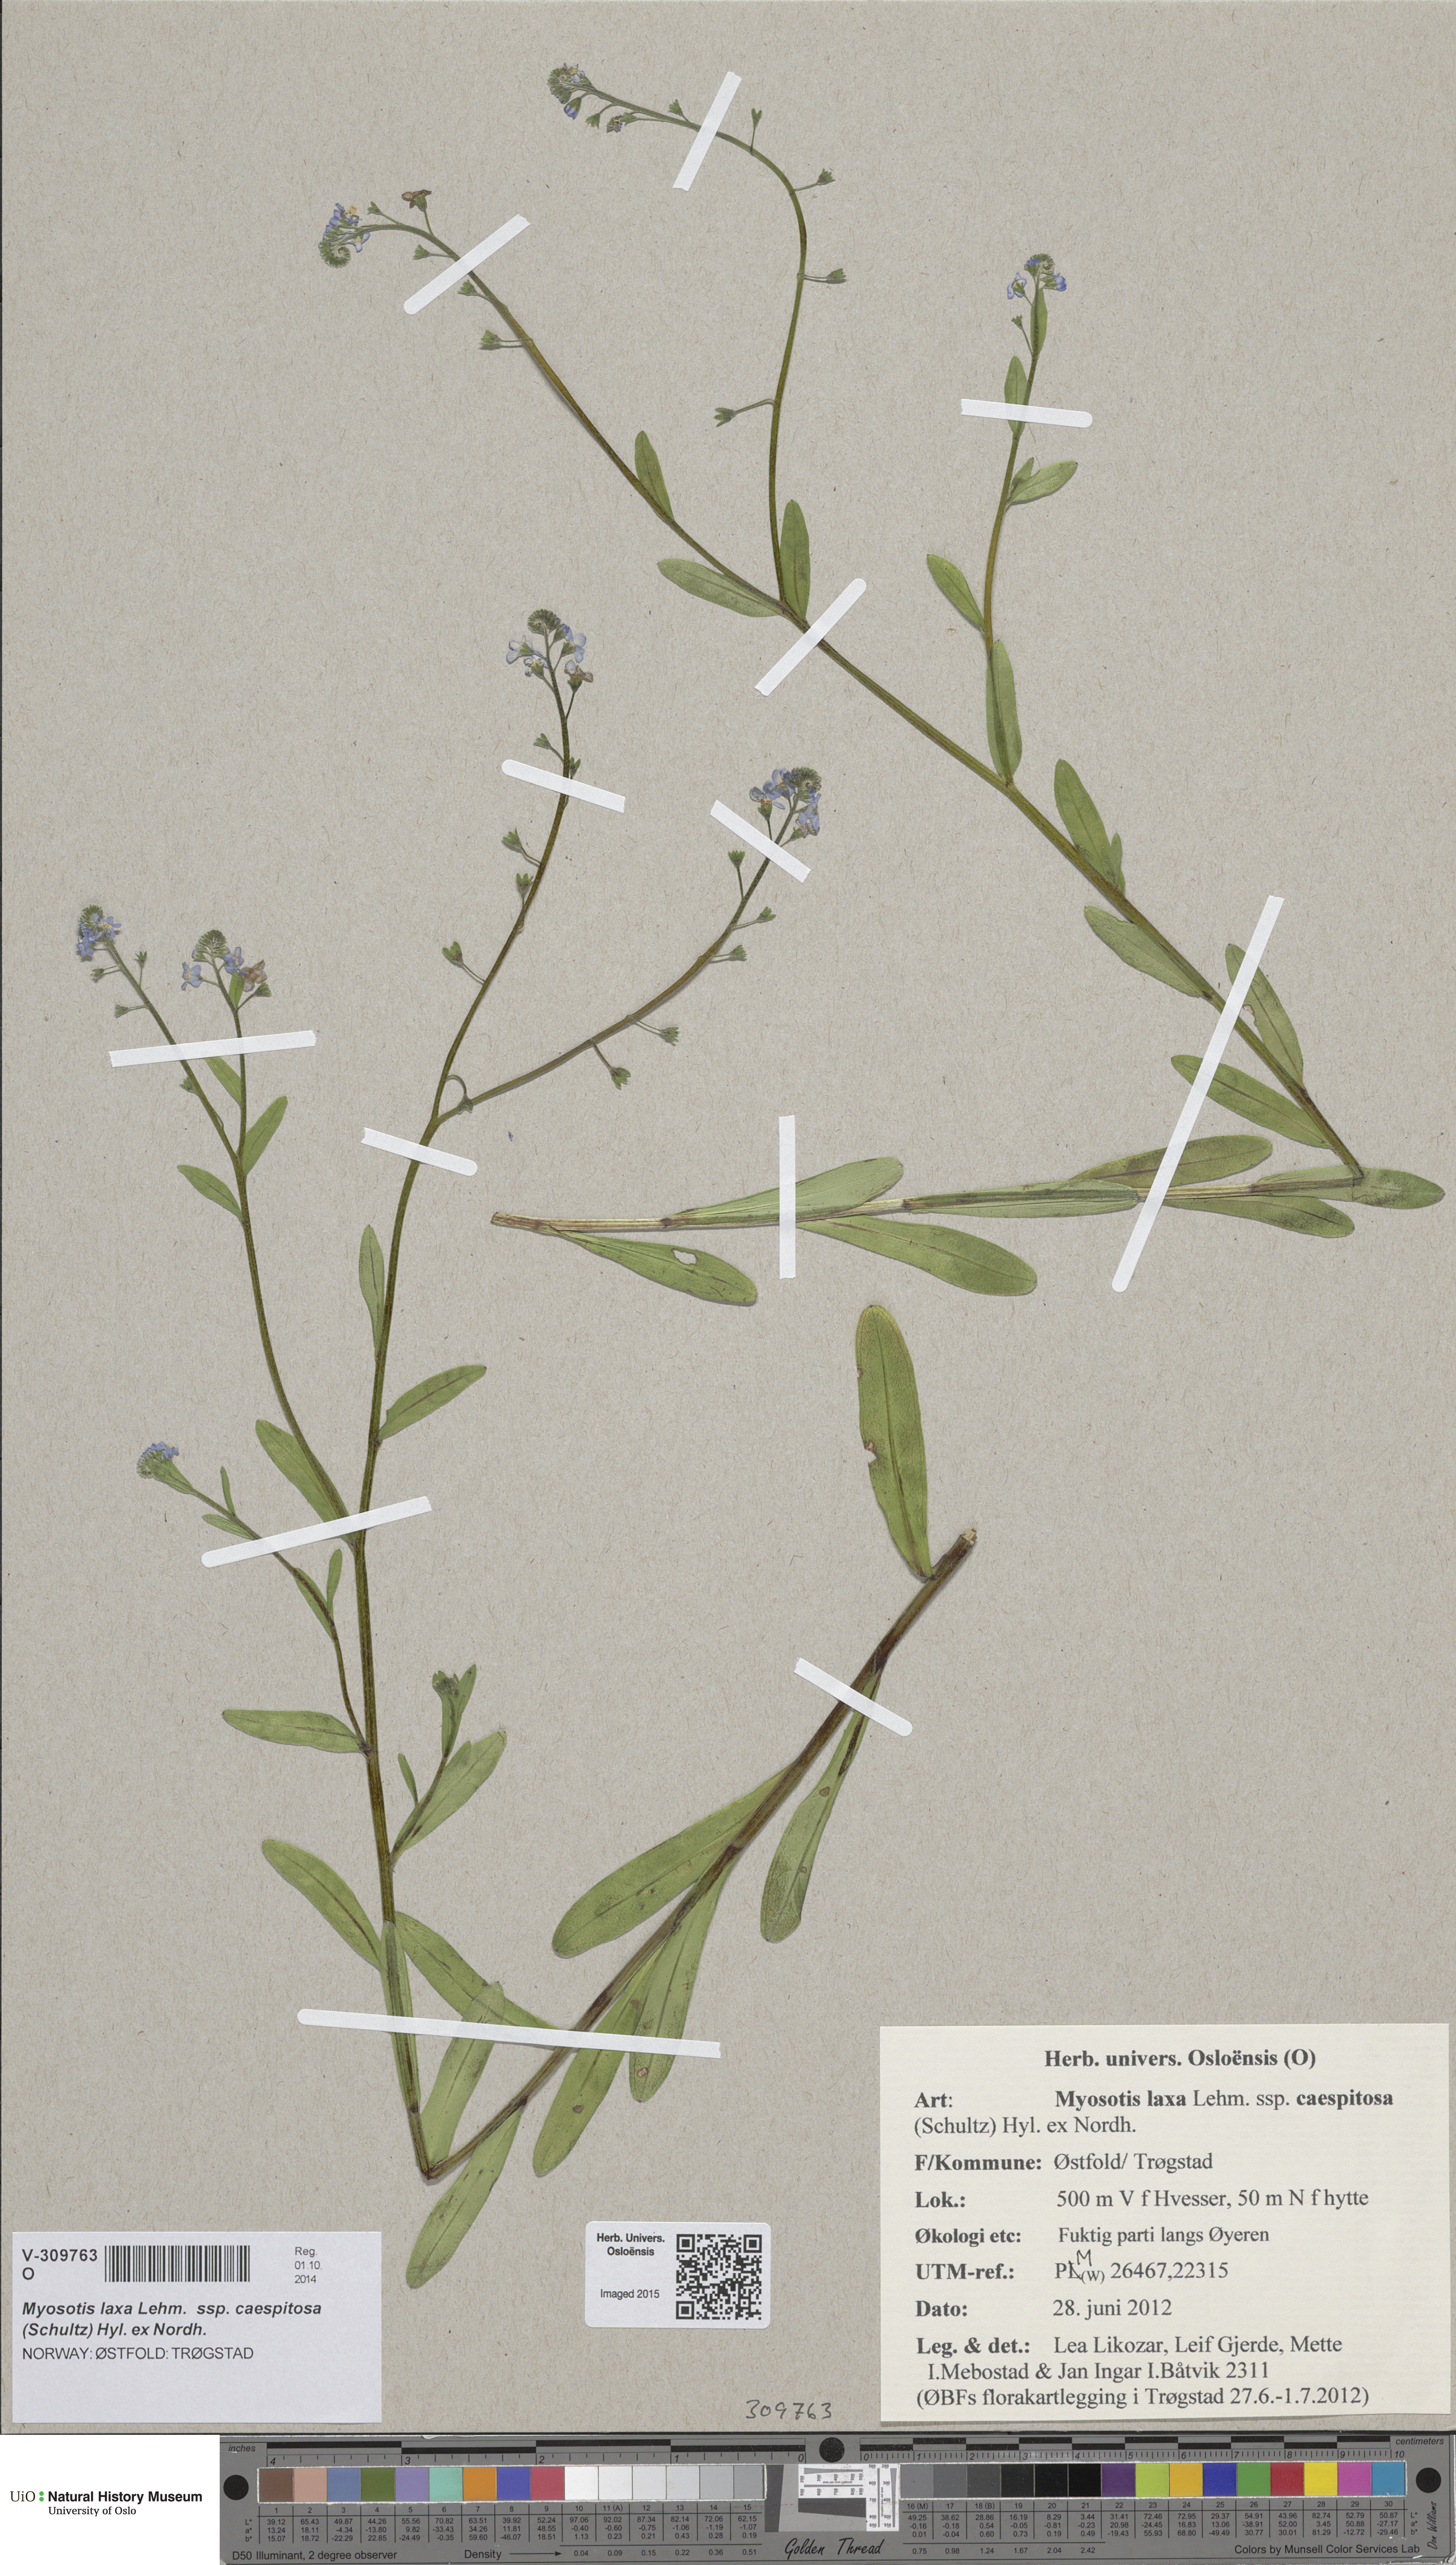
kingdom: Plantae
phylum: Tracheophyta
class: Magnoliopsida
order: Boraginales
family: Boraginaceae
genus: Myosotis
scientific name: Myosotis scorpioides
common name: Water forget-me-not
